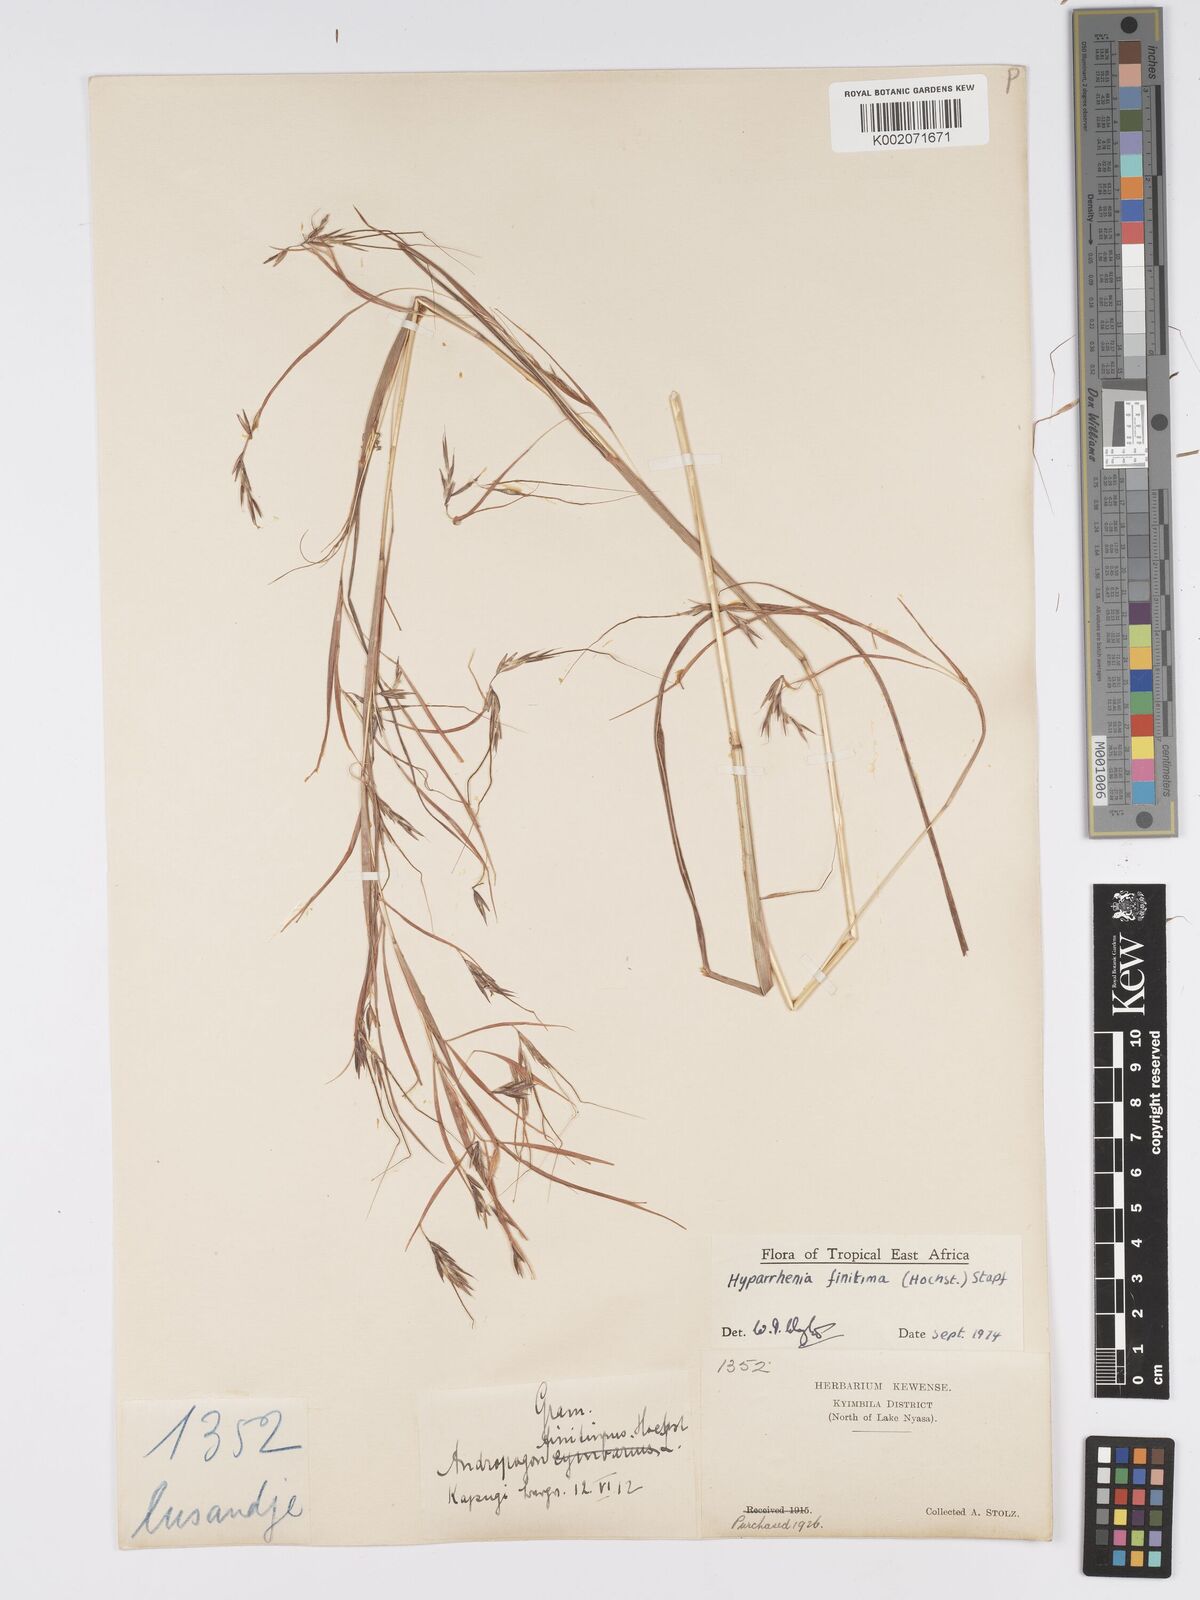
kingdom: Plantae
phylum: Tracheophyta
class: Liliopsida
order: Poales
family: Poaceae
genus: Hyparrhenia
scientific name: Hyparrhenia finitima
